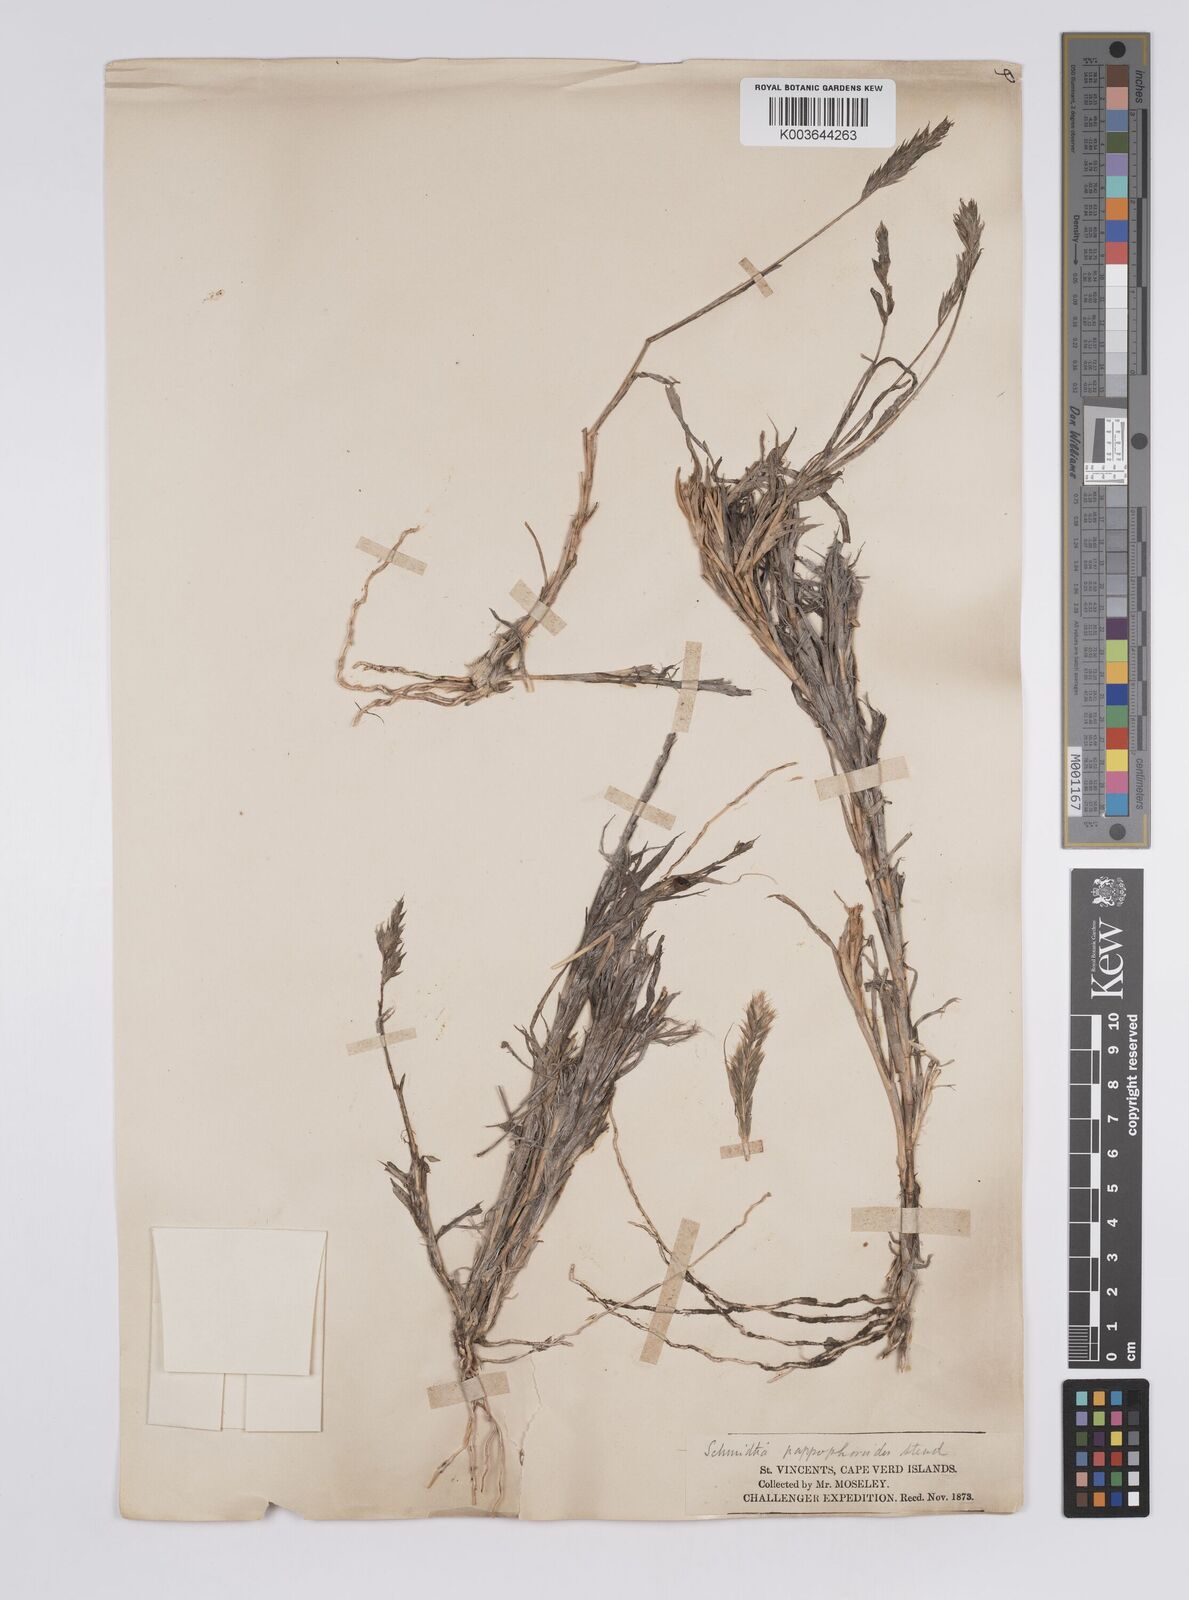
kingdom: Plantae
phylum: Tracheophyta
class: Liliopsida
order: Poales
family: Poaceae
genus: Schmidtia
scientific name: Schmidtia pappophoroides
